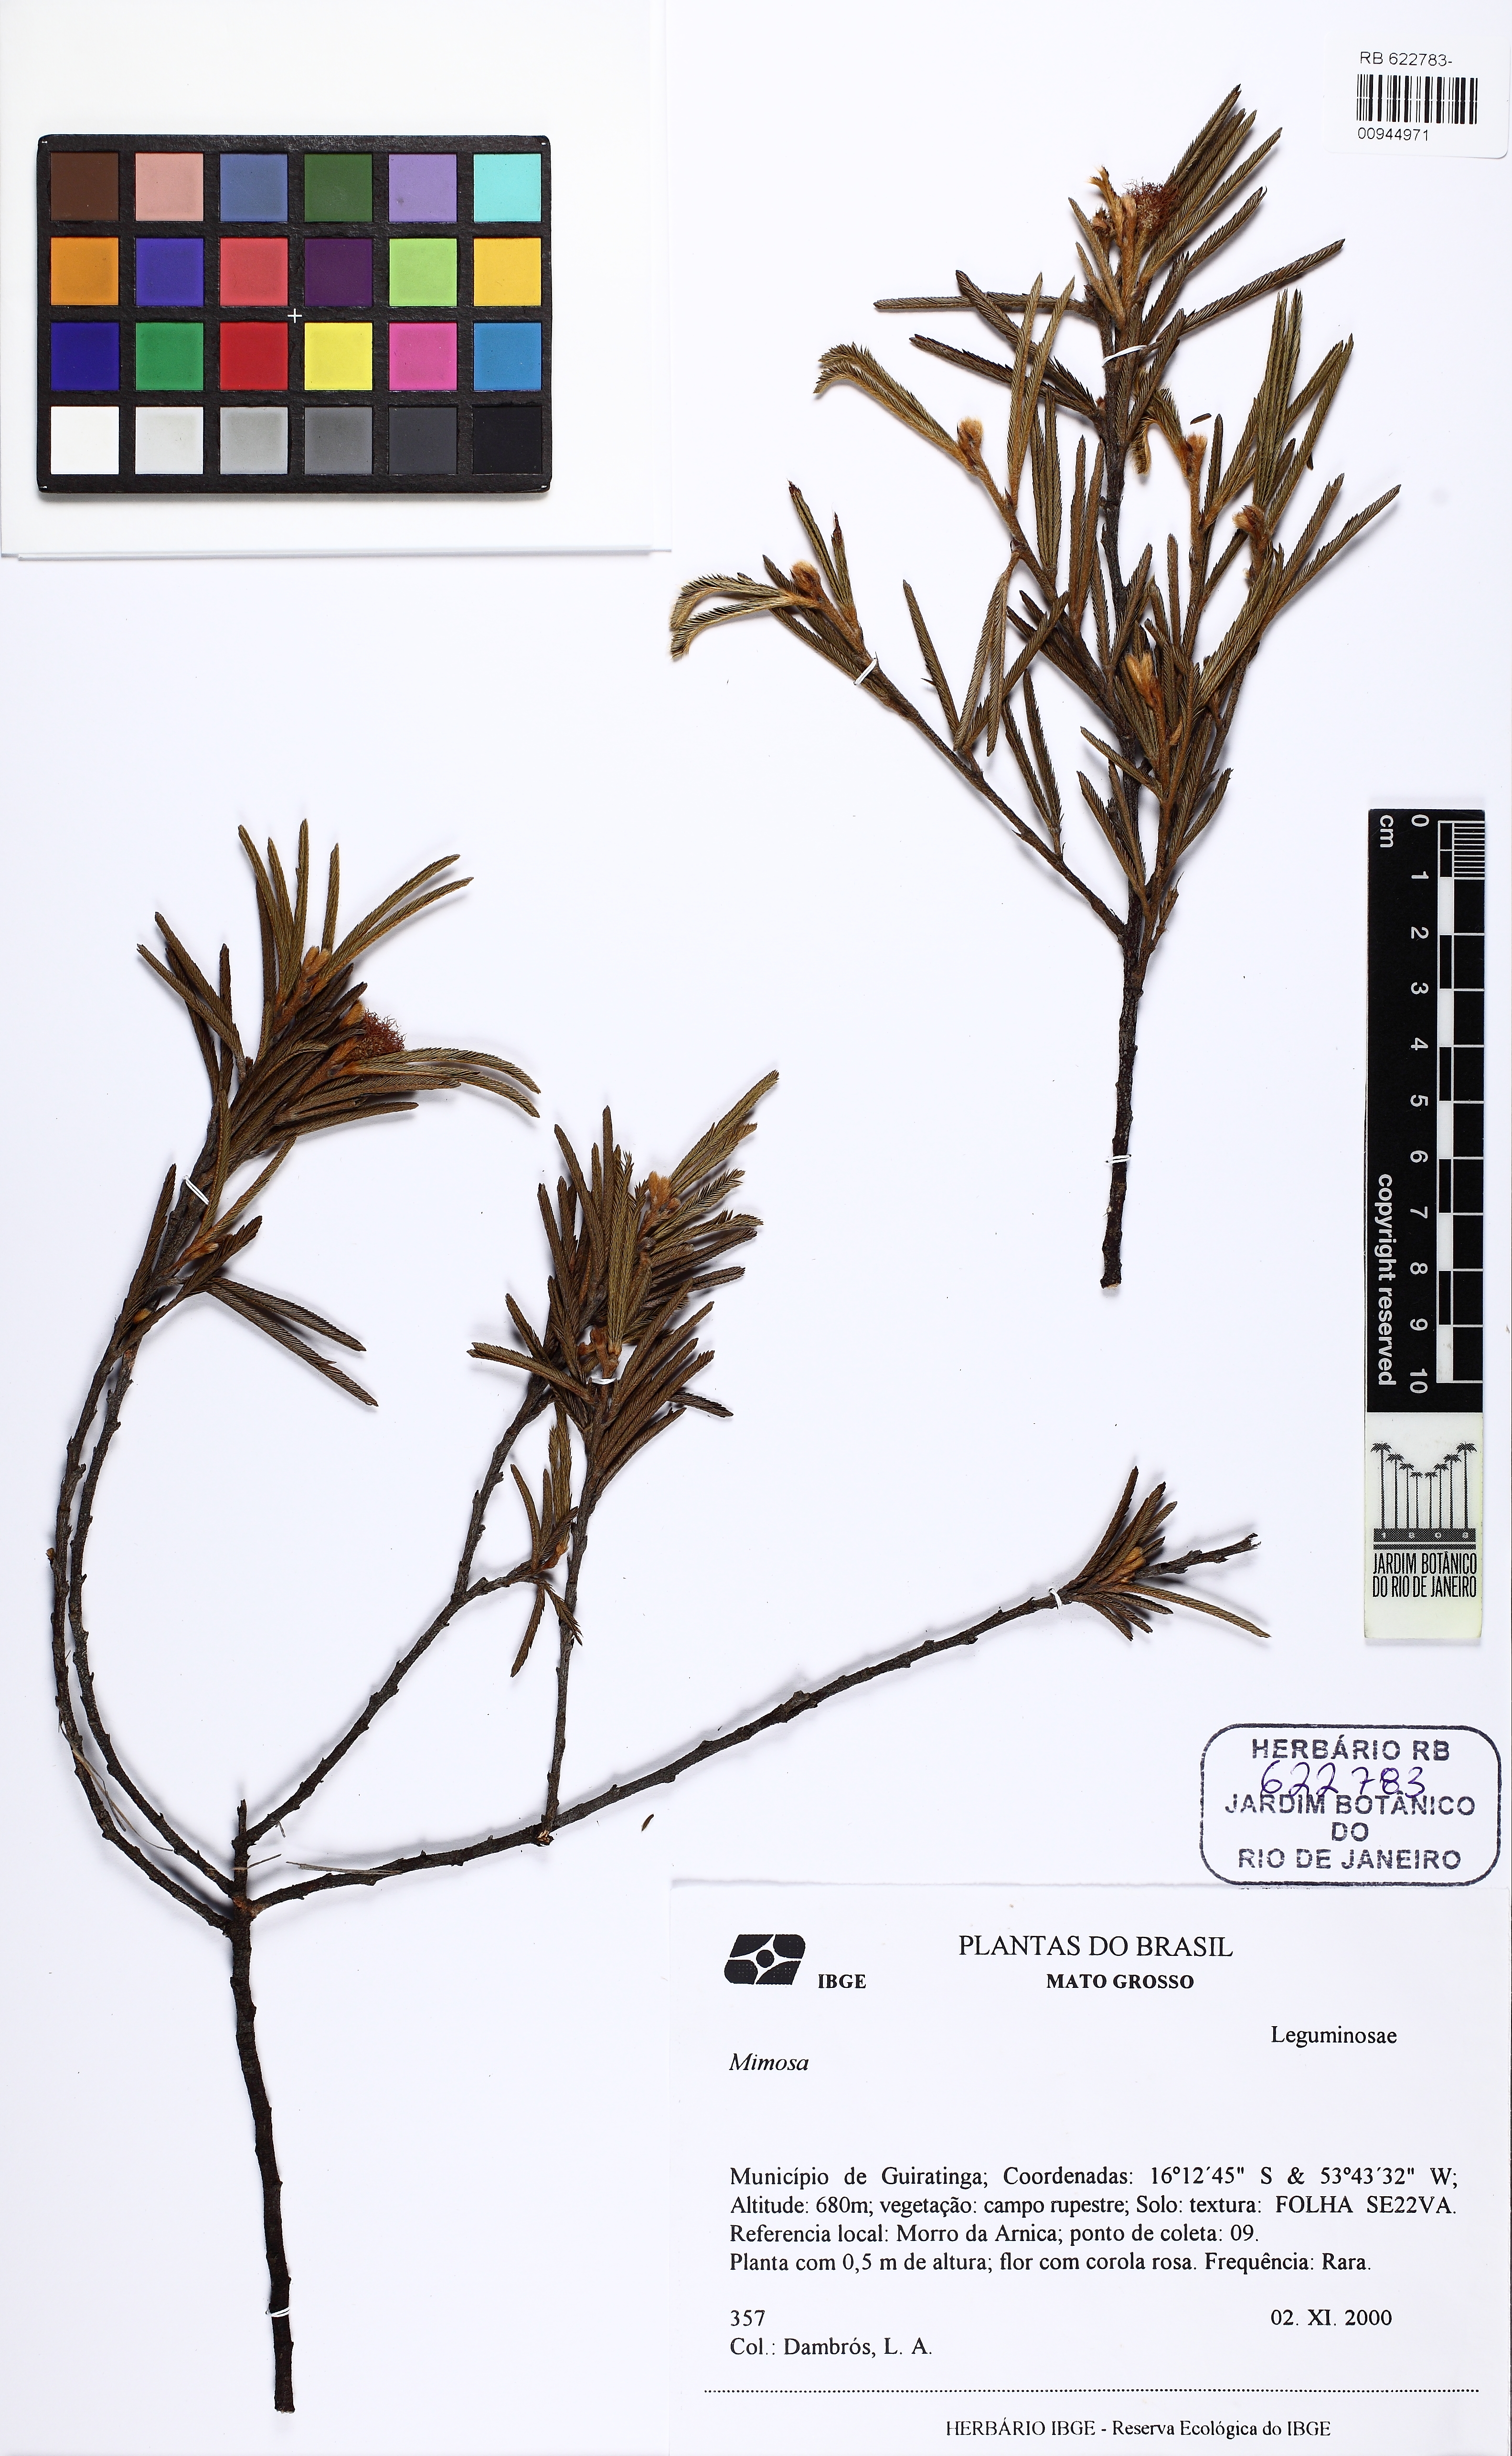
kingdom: Plantae
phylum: Tracheophyta
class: Magnoliopsida
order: Fabales
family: Fabaceae
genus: Mimosa
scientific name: Mimosa
